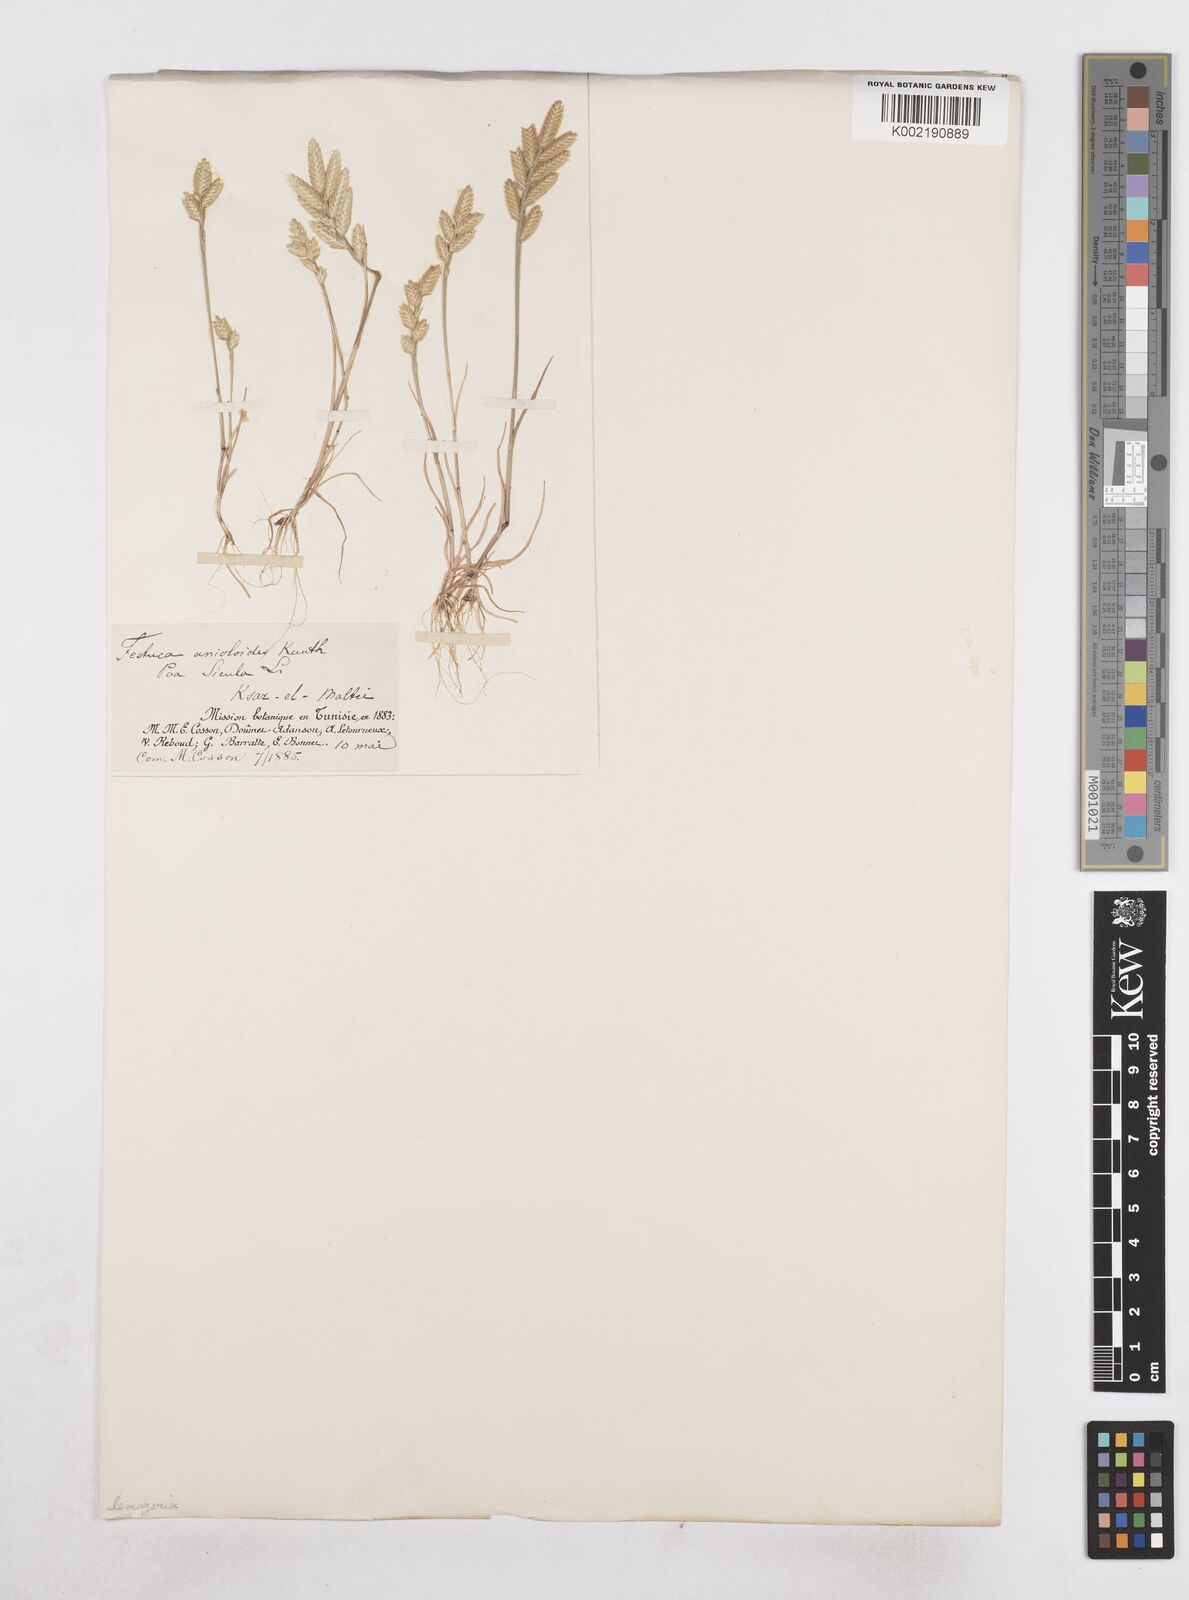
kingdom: Plantae
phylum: Tracheophyta
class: Liliopsida
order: Poales
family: Poaceae
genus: Desmazeria
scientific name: Desmazeria sicula
